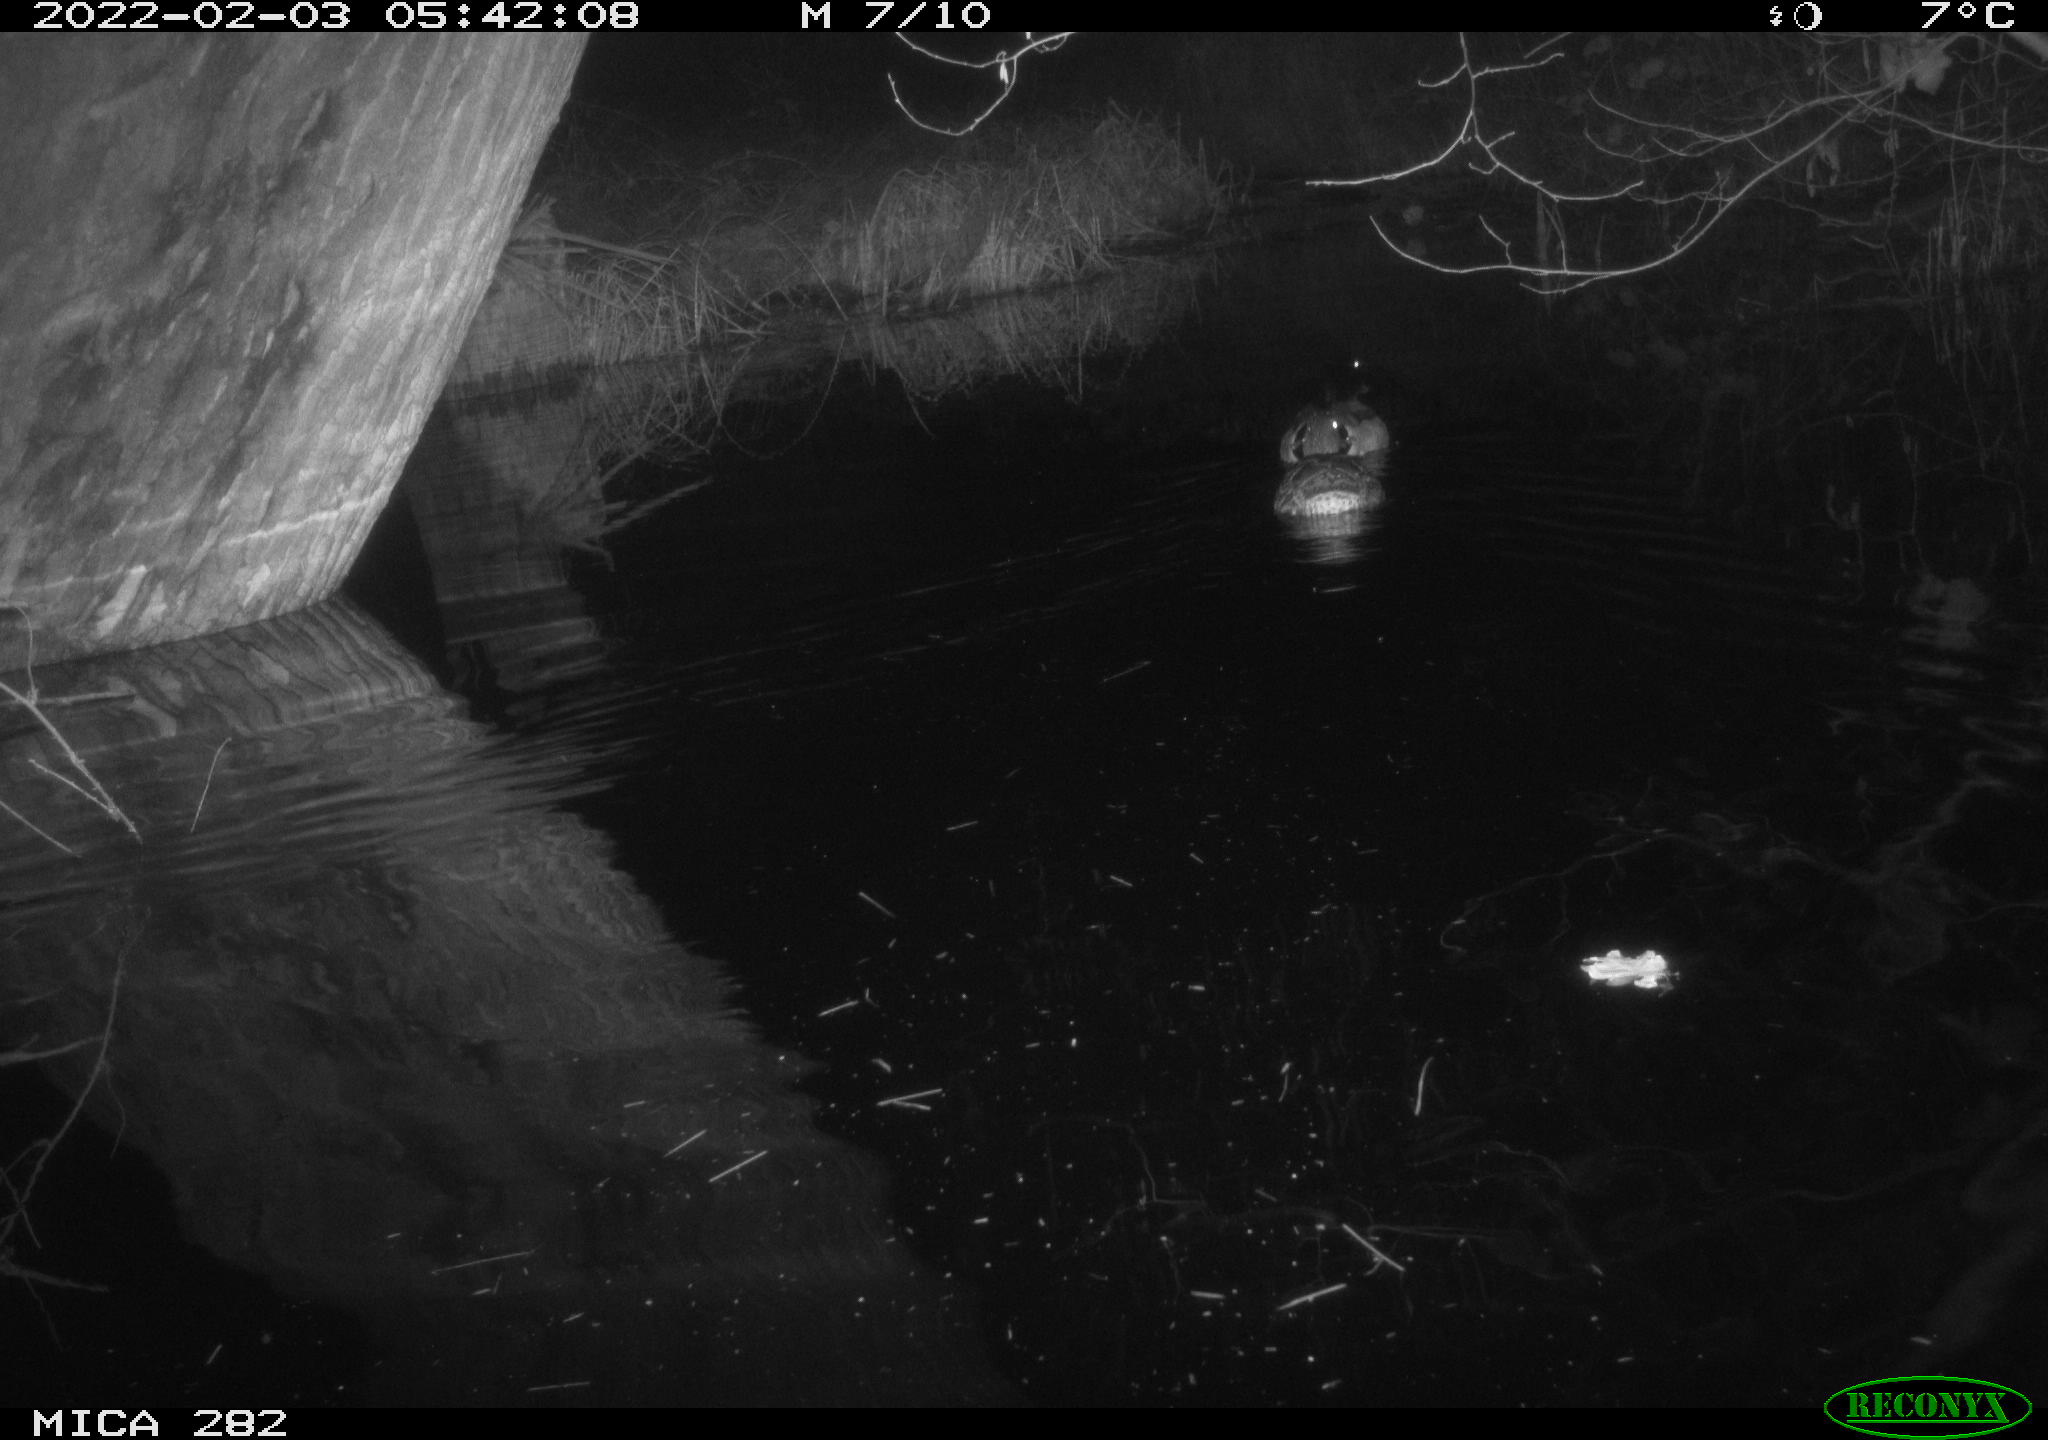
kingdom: Animalia
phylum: Chordata
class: Aves
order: Anseriformes
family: Anatidae
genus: Anas
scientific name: Anas platyrhynchos
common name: Mallard
